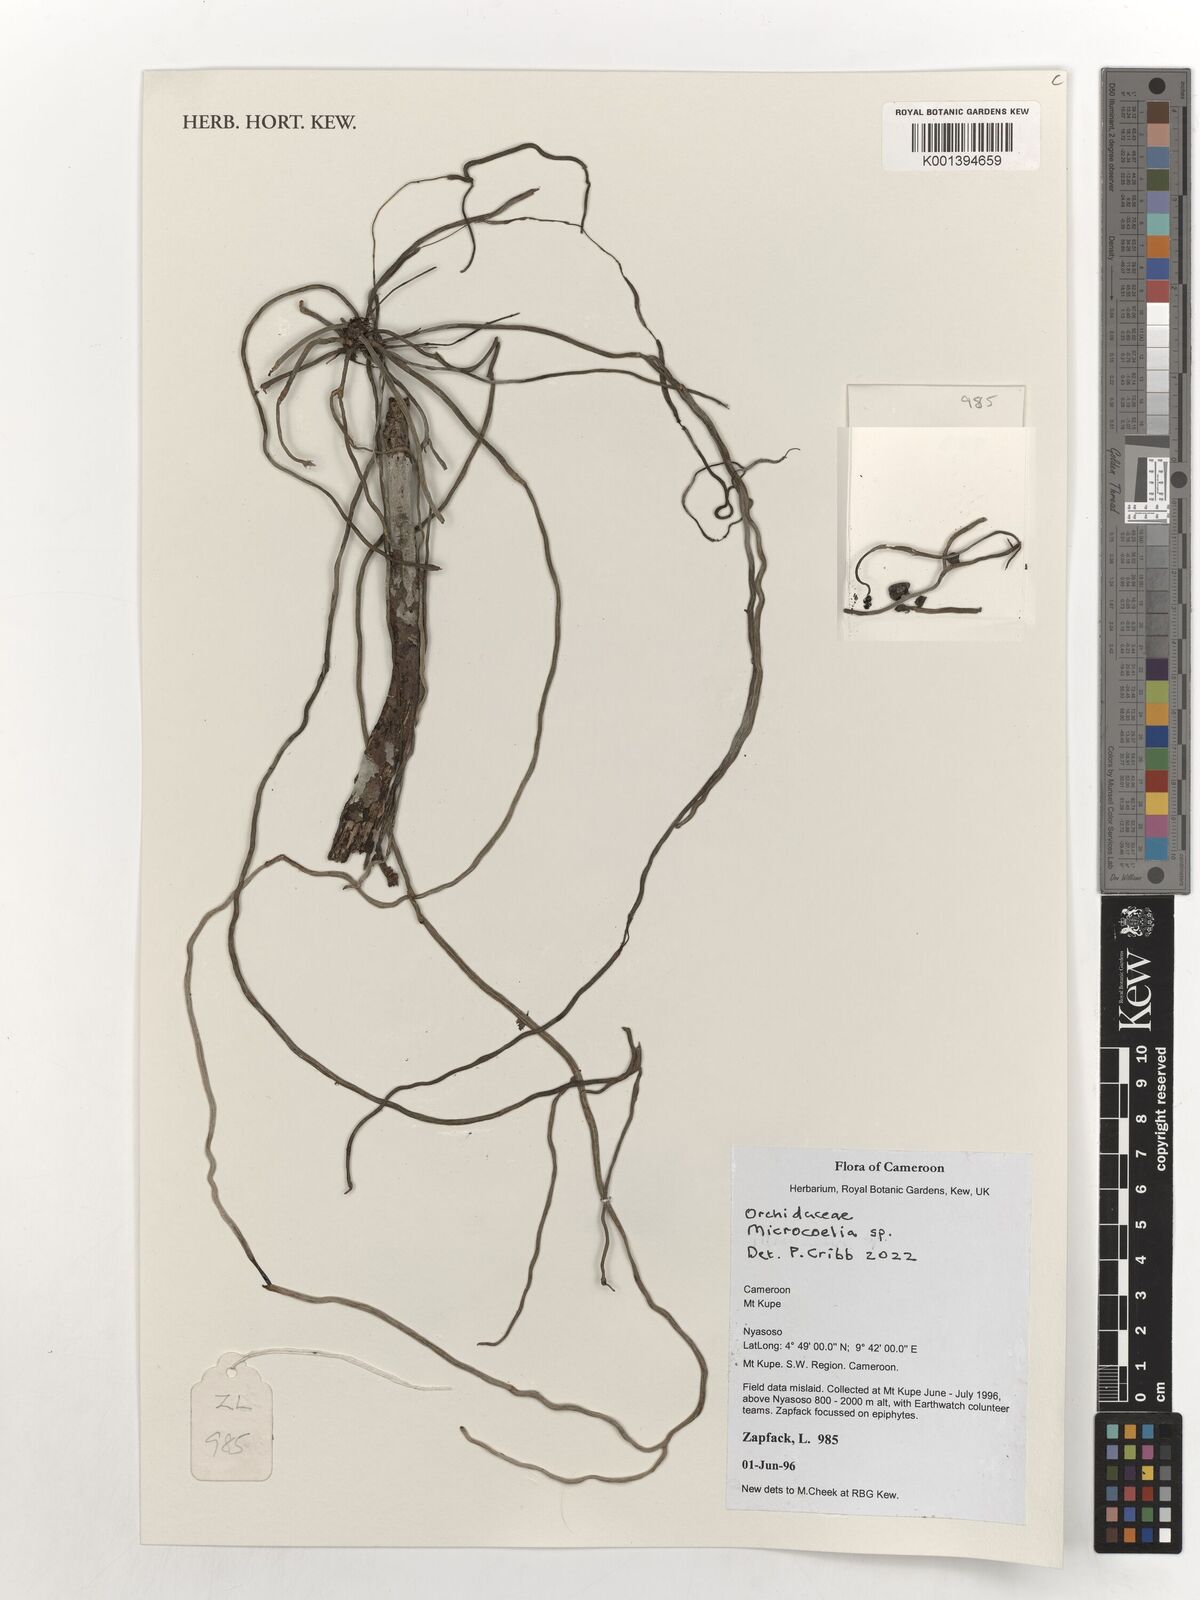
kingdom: Plantae
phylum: Tracheophyta
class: Liliopsida
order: Asparagales
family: Orchidaceae
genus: Microcoelia
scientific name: Microcoelia
